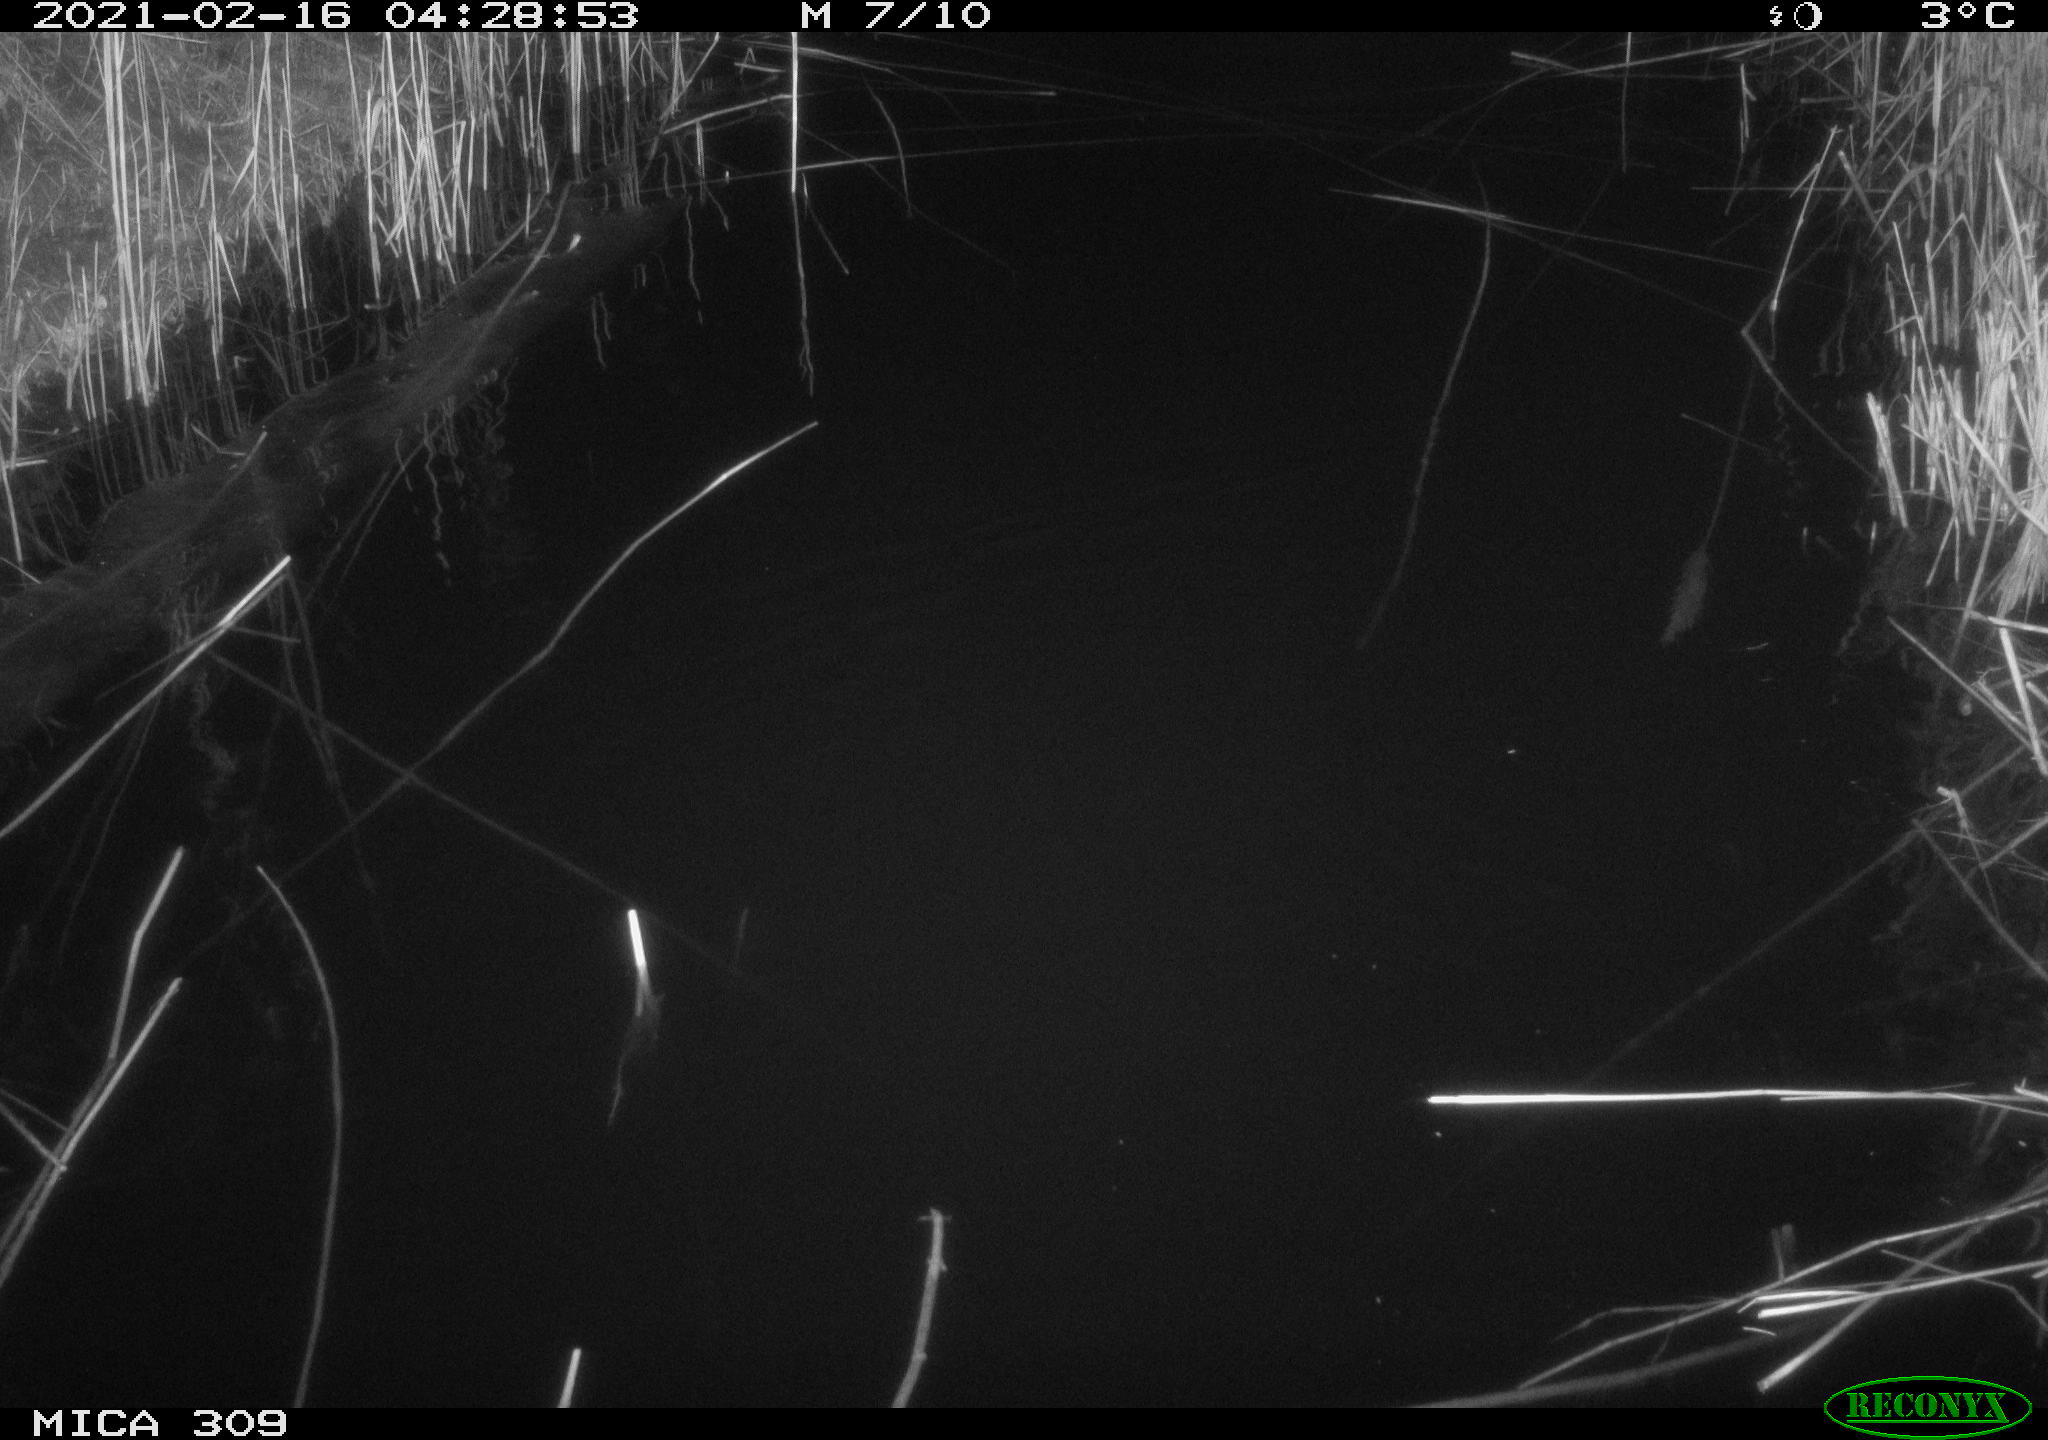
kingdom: Animalia
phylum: Chordata
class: Mammalia
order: Rodentia
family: Muridae
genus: Rattus
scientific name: Rattus norvegicus
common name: Brown rat
